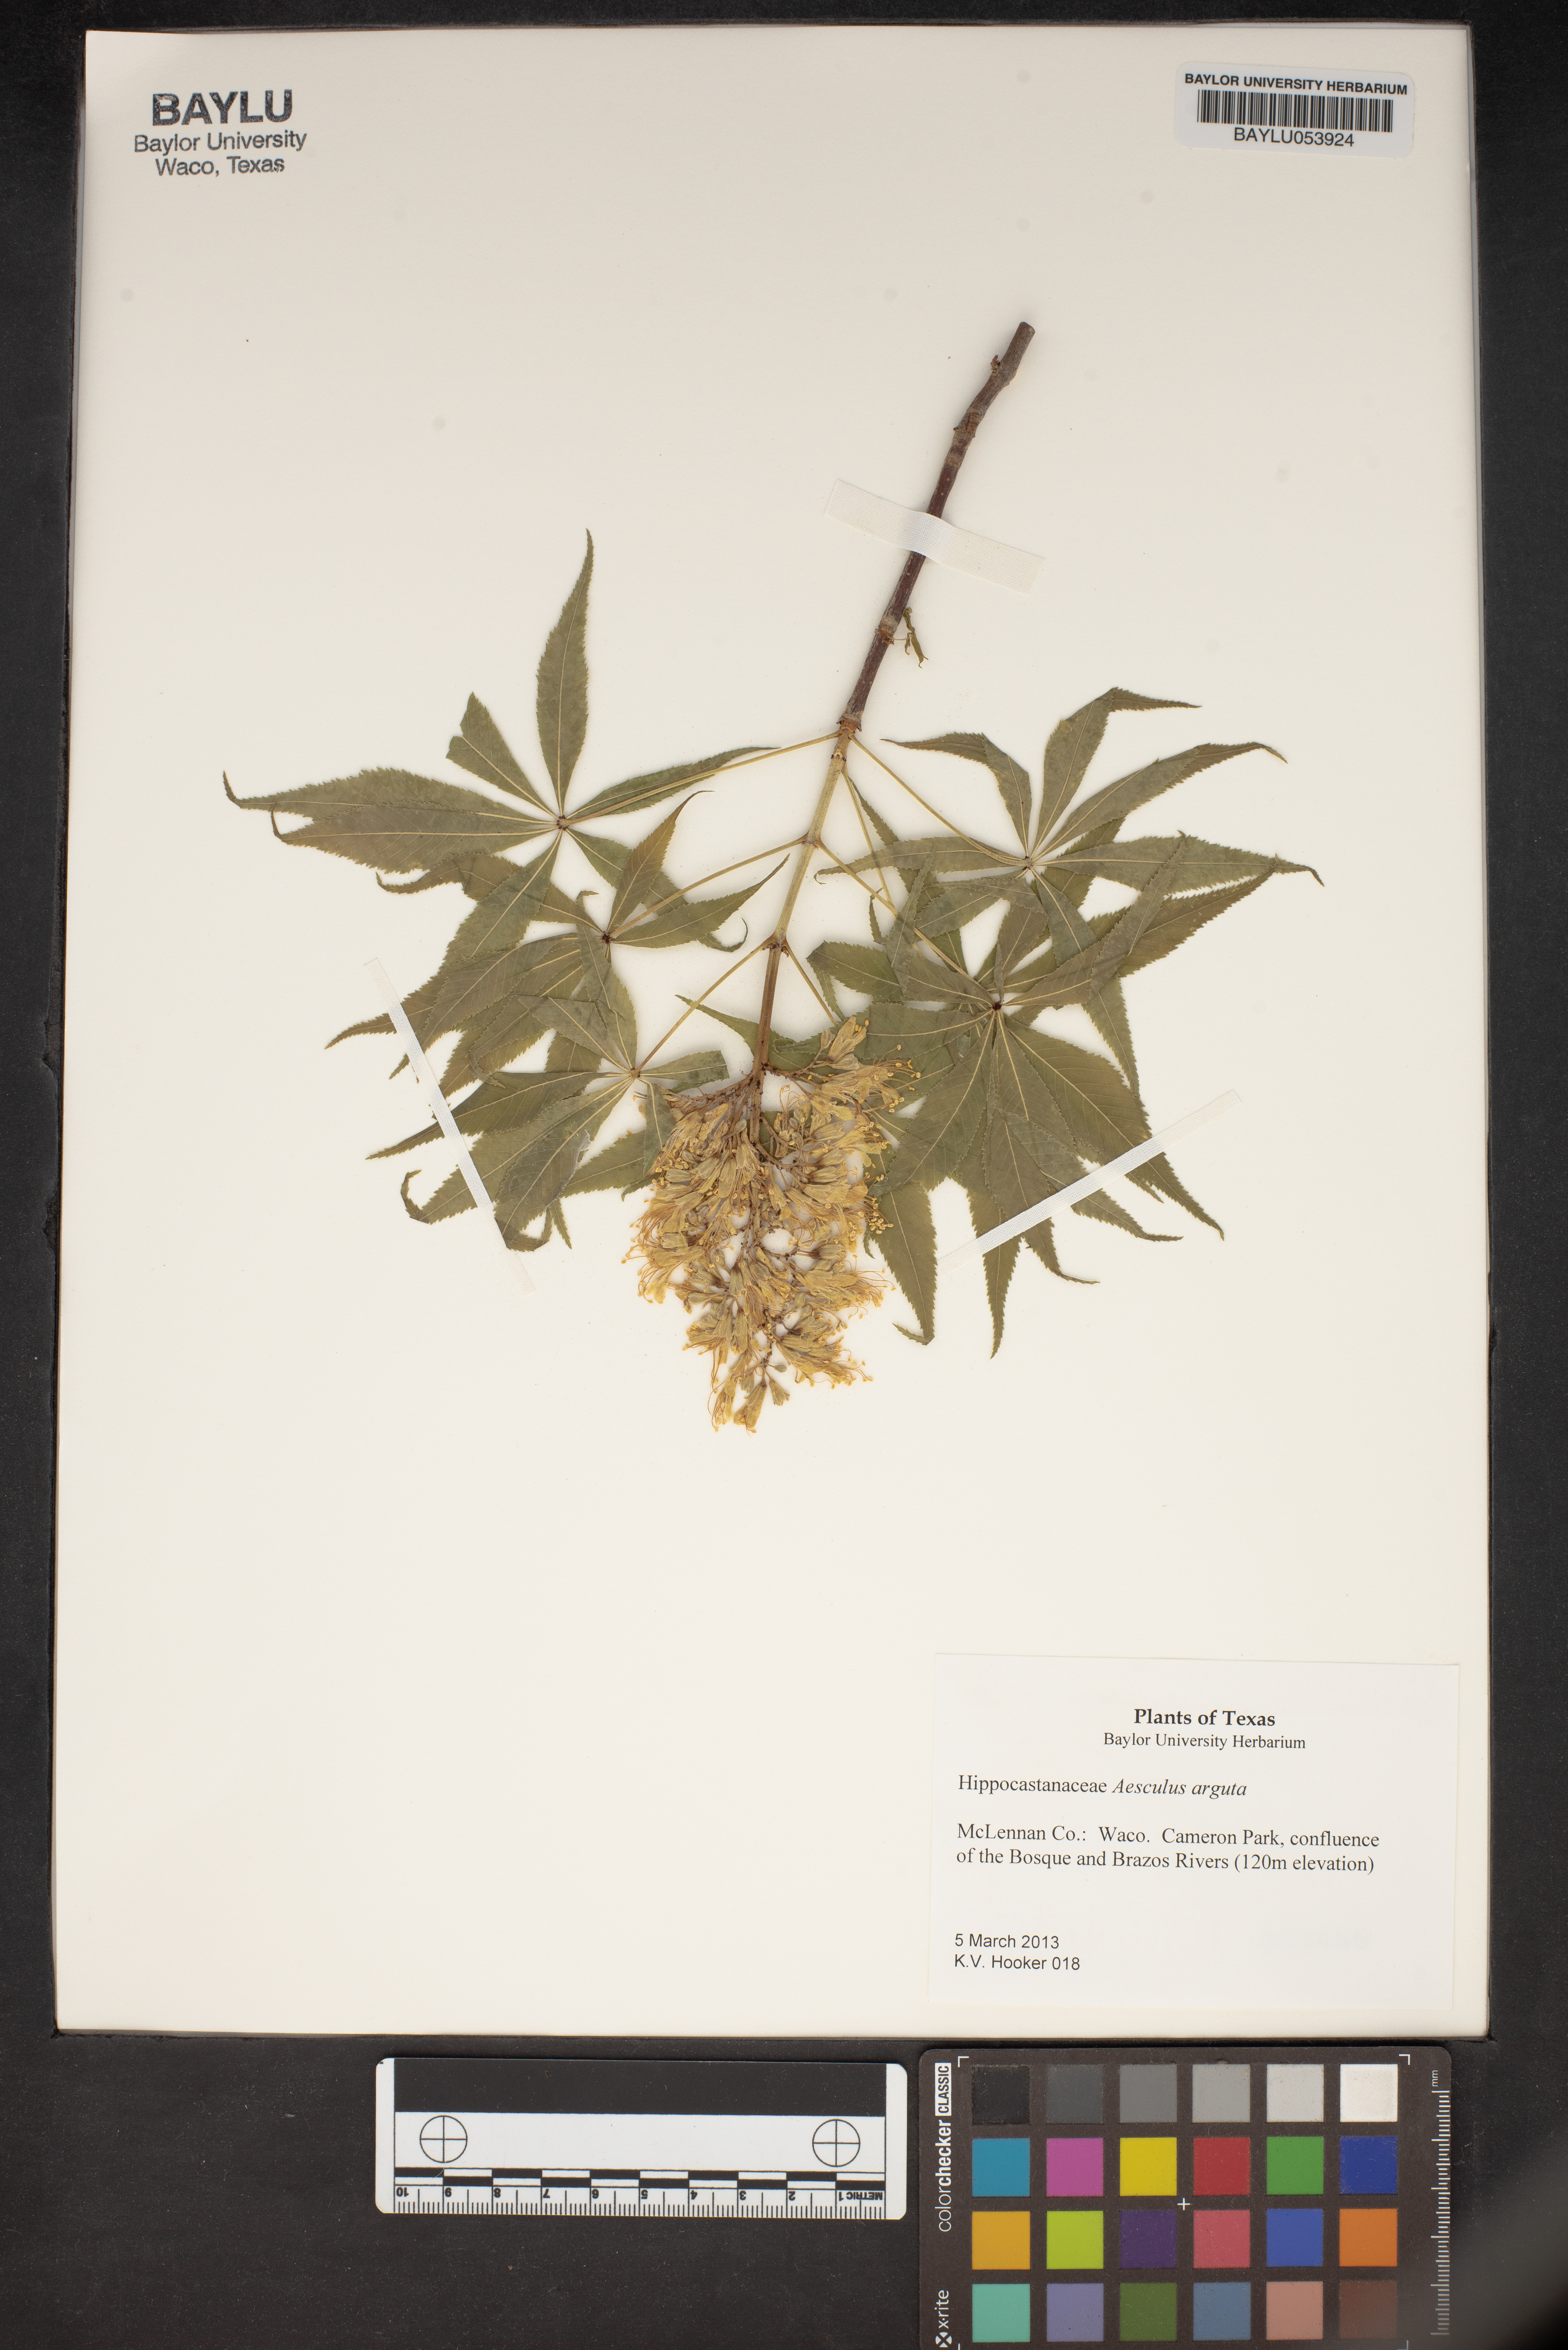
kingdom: Plantae
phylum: Tracheophyta
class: Magnoliopsida
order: Sapindales
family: Sapindaceae
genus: Aesculus
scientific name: Aesculus glabra
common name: Ohio buckeye
